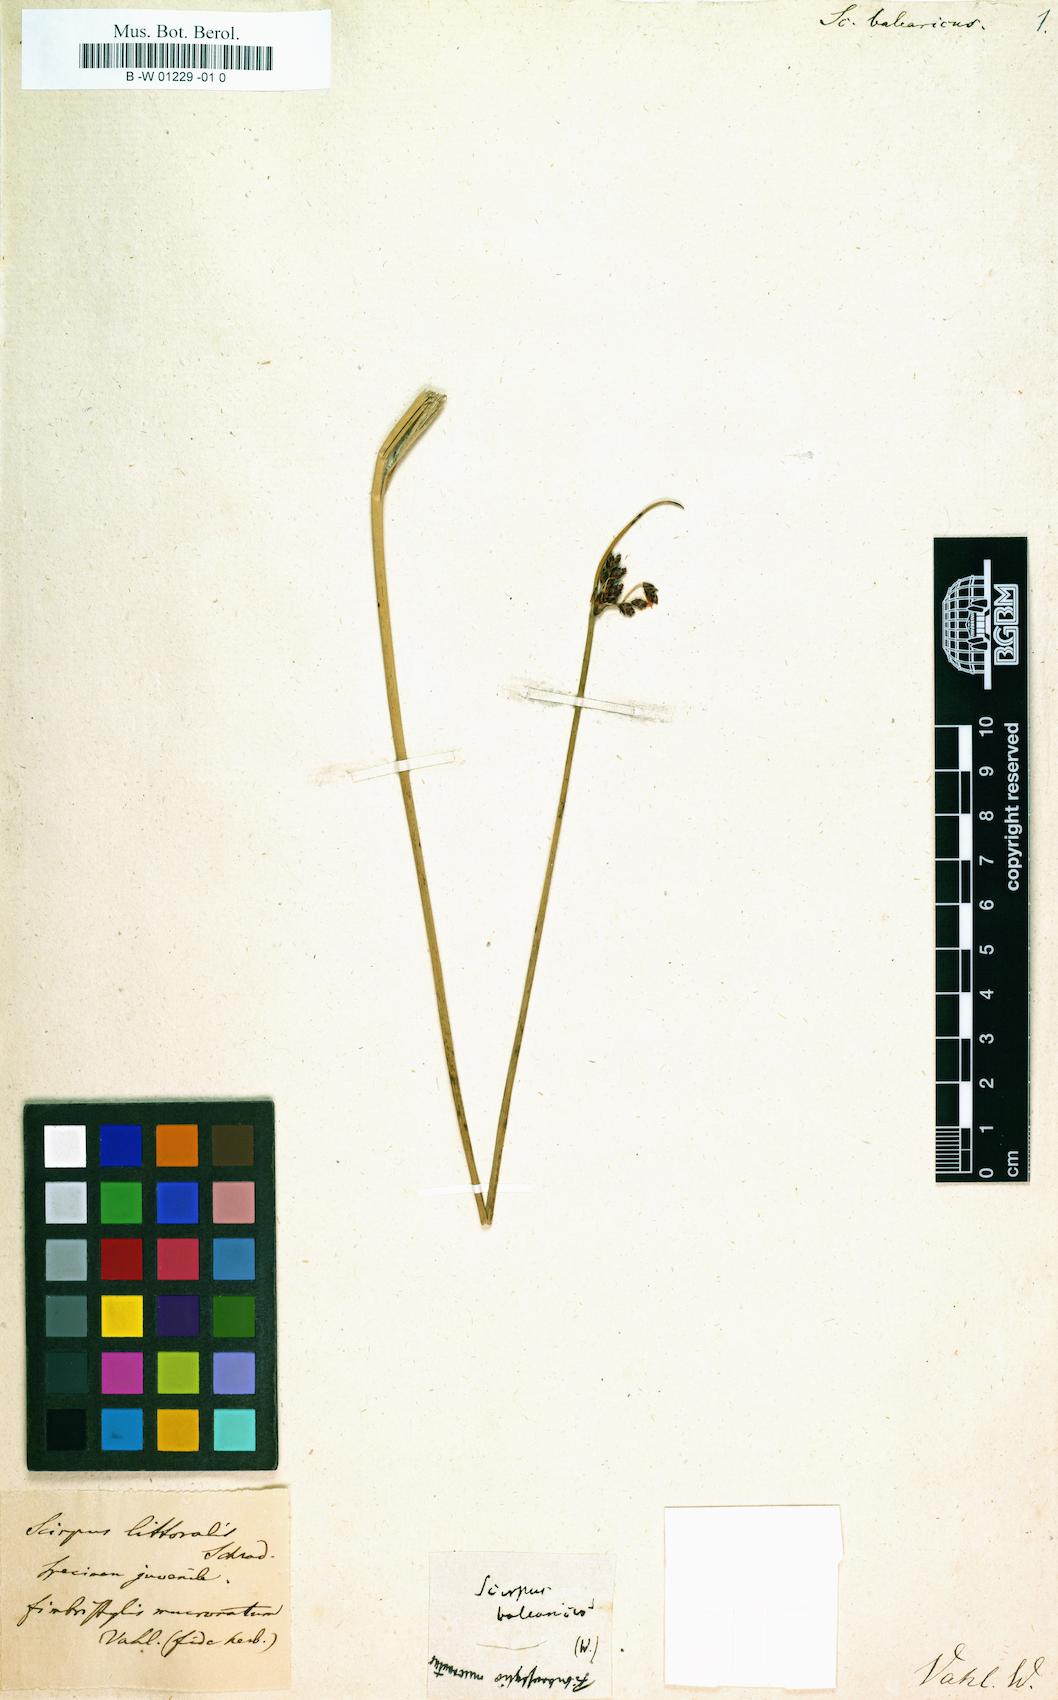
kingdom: Plantae
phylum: Tracheophyta
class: Liliopsida
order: Poales
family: Cyperaceae
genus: Schoenoplectus
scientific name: Schoenoplectus litoralis
